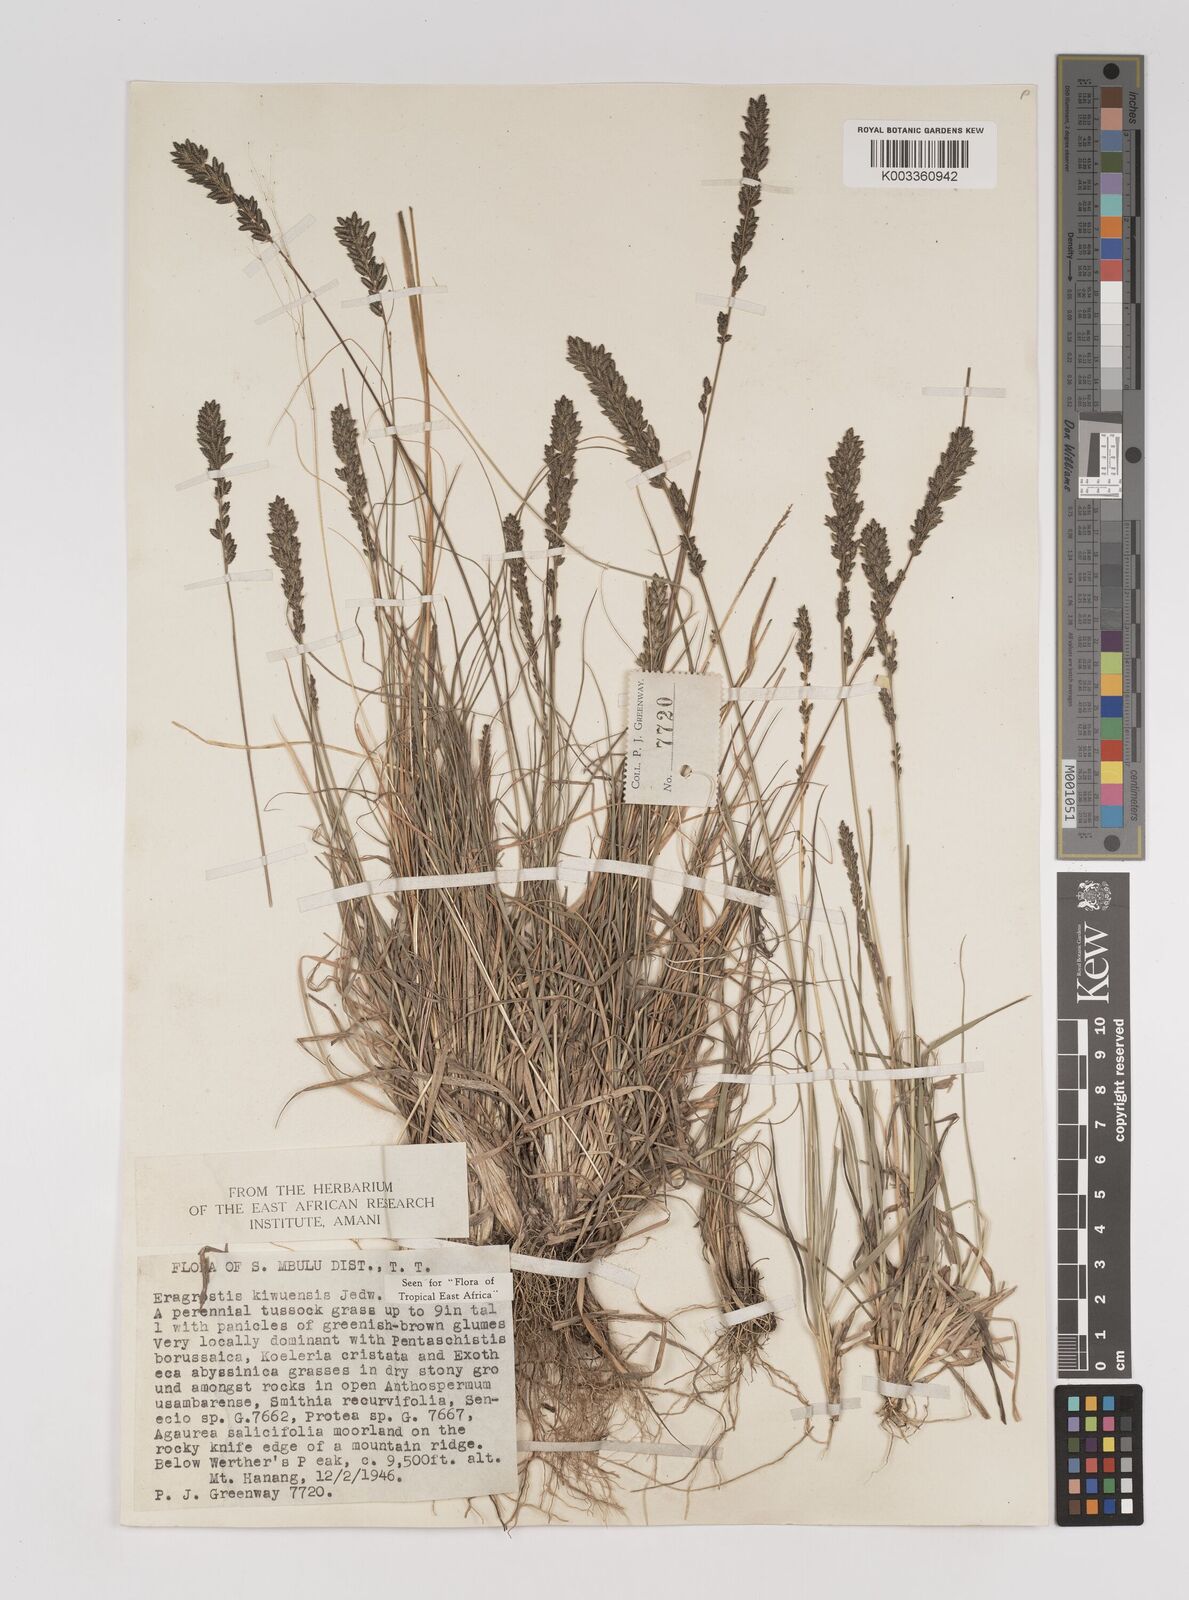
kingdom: Plantae
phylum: Tracheophyta
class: Liliopsida
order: Poales
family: Poaceae
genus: Eragrostis
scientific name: Eragrostis schweinfurthii
